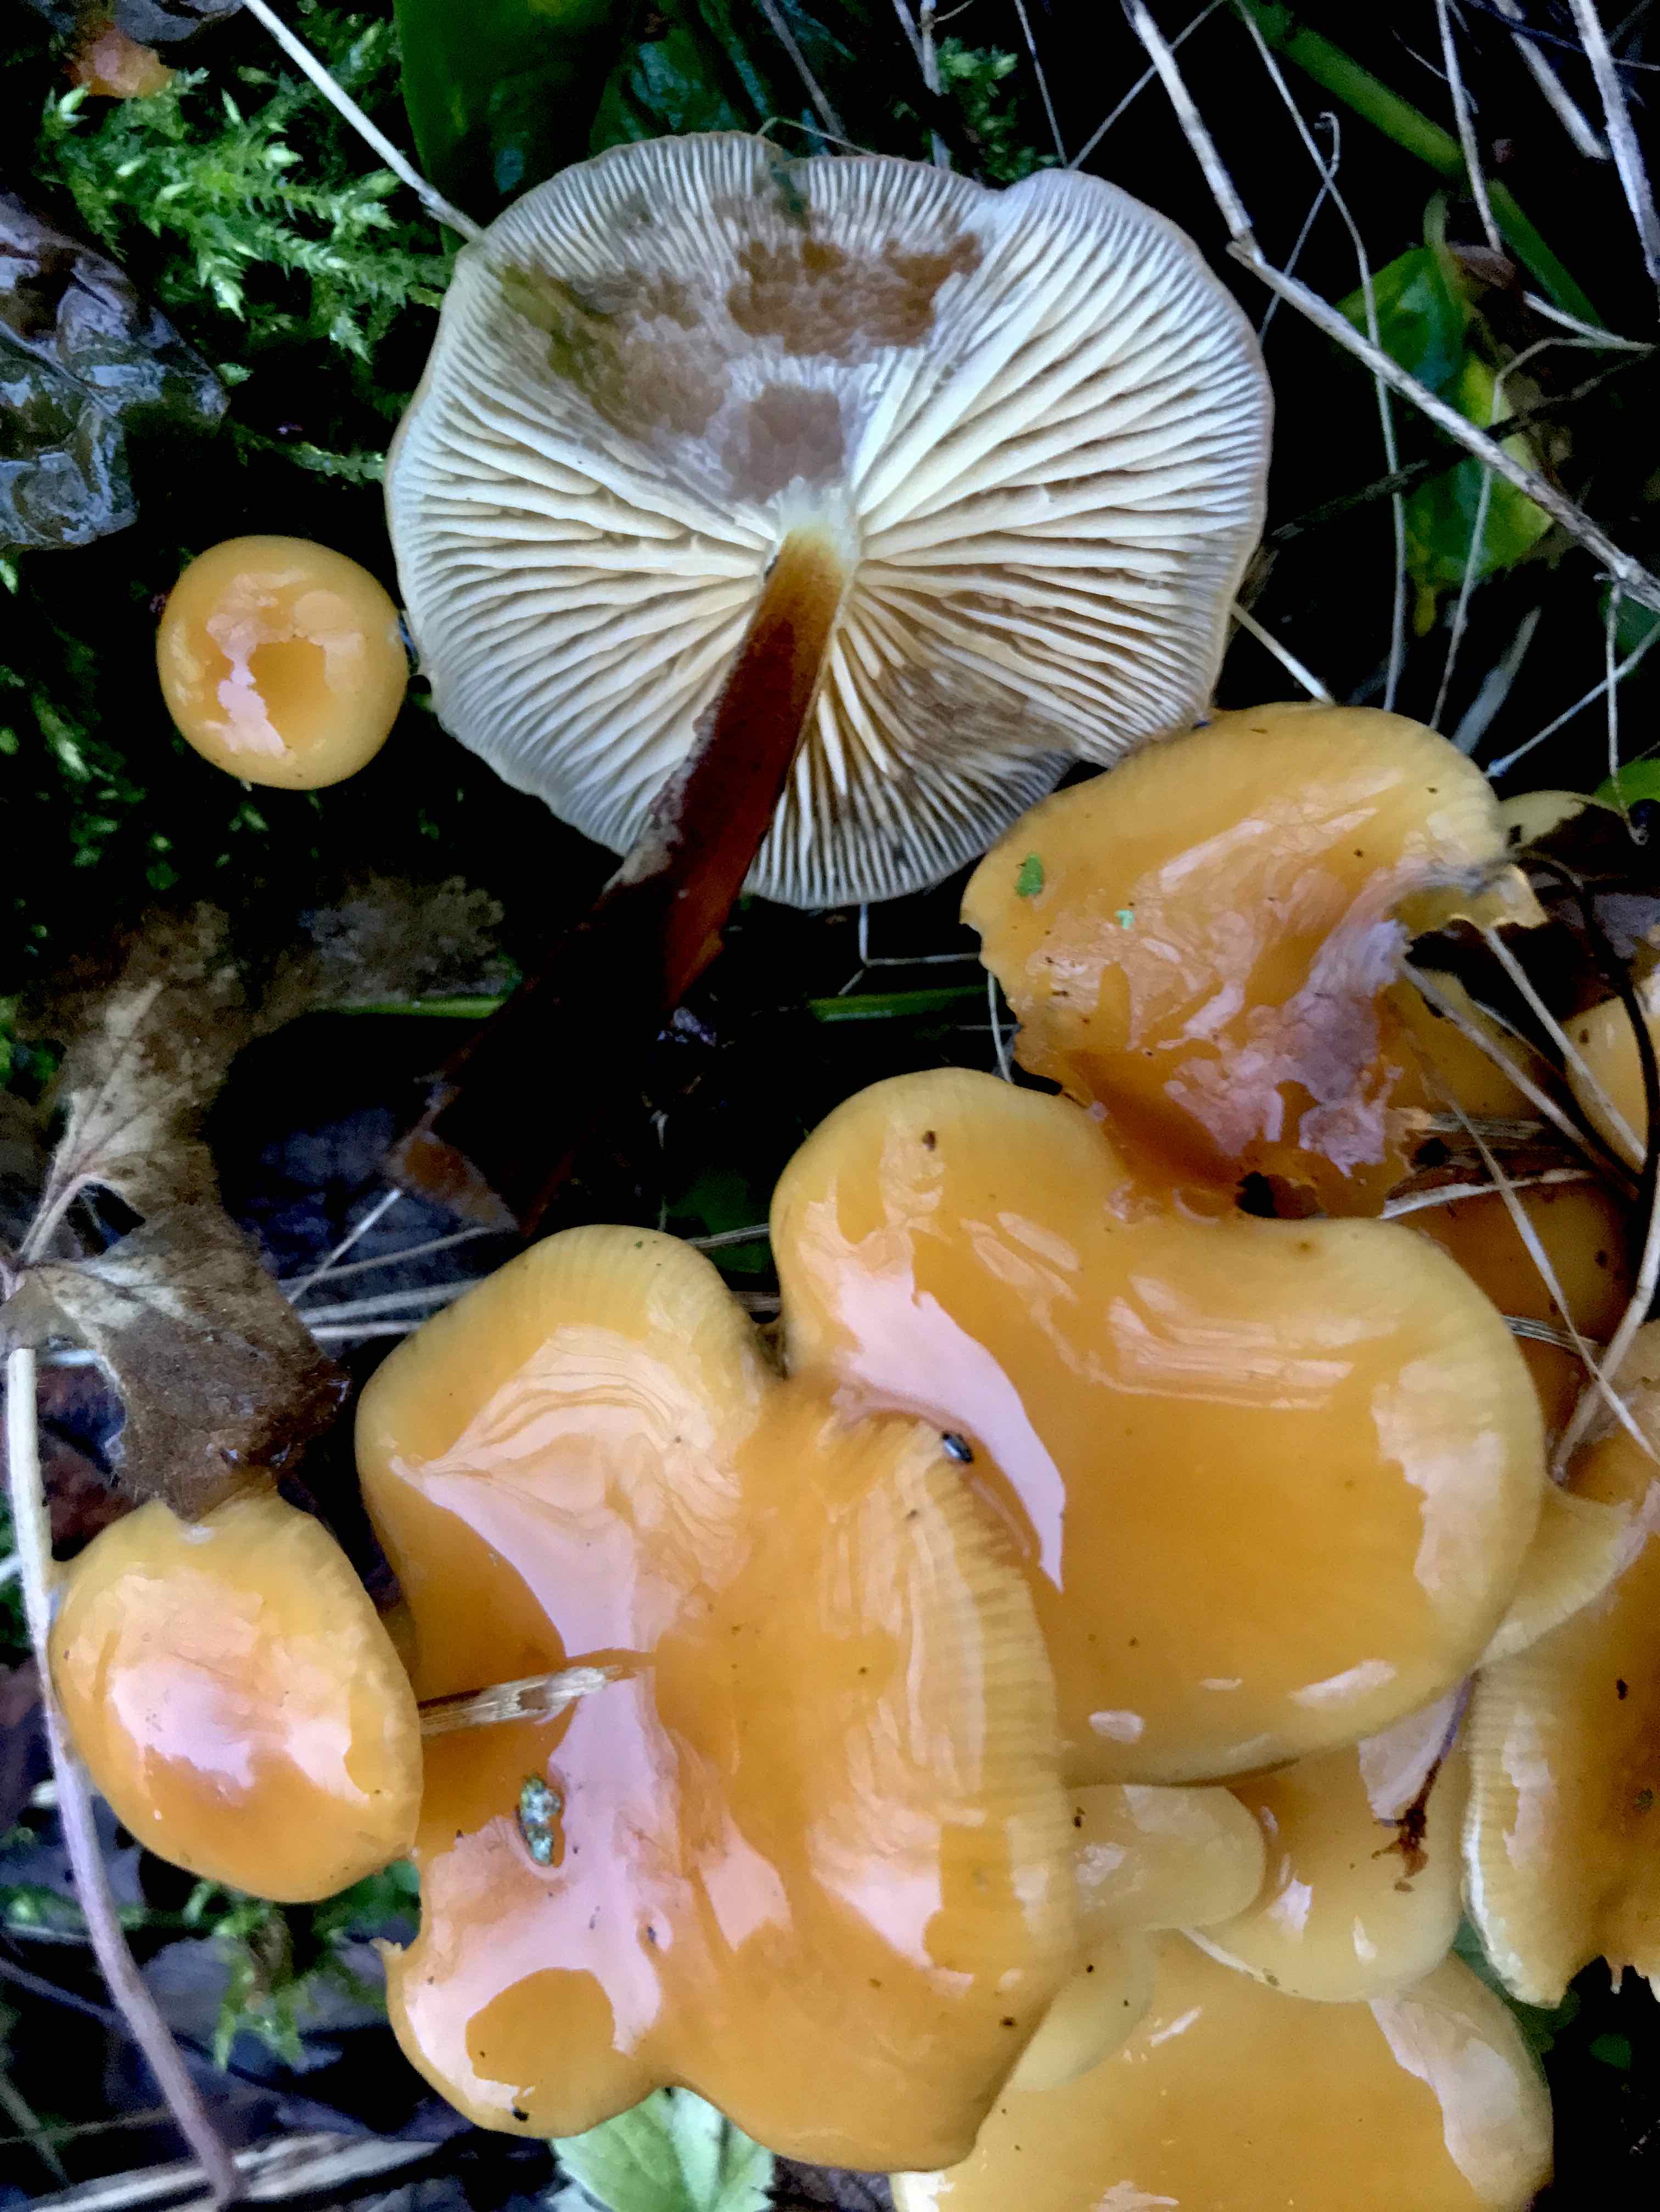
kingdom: Fungi
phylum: Basidiomycota
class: Agaricomycetes
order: Agaricales
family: Physalacriaceae
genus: Flammulina
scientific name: Flammulina velutipes
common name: gul fløjlsfod
